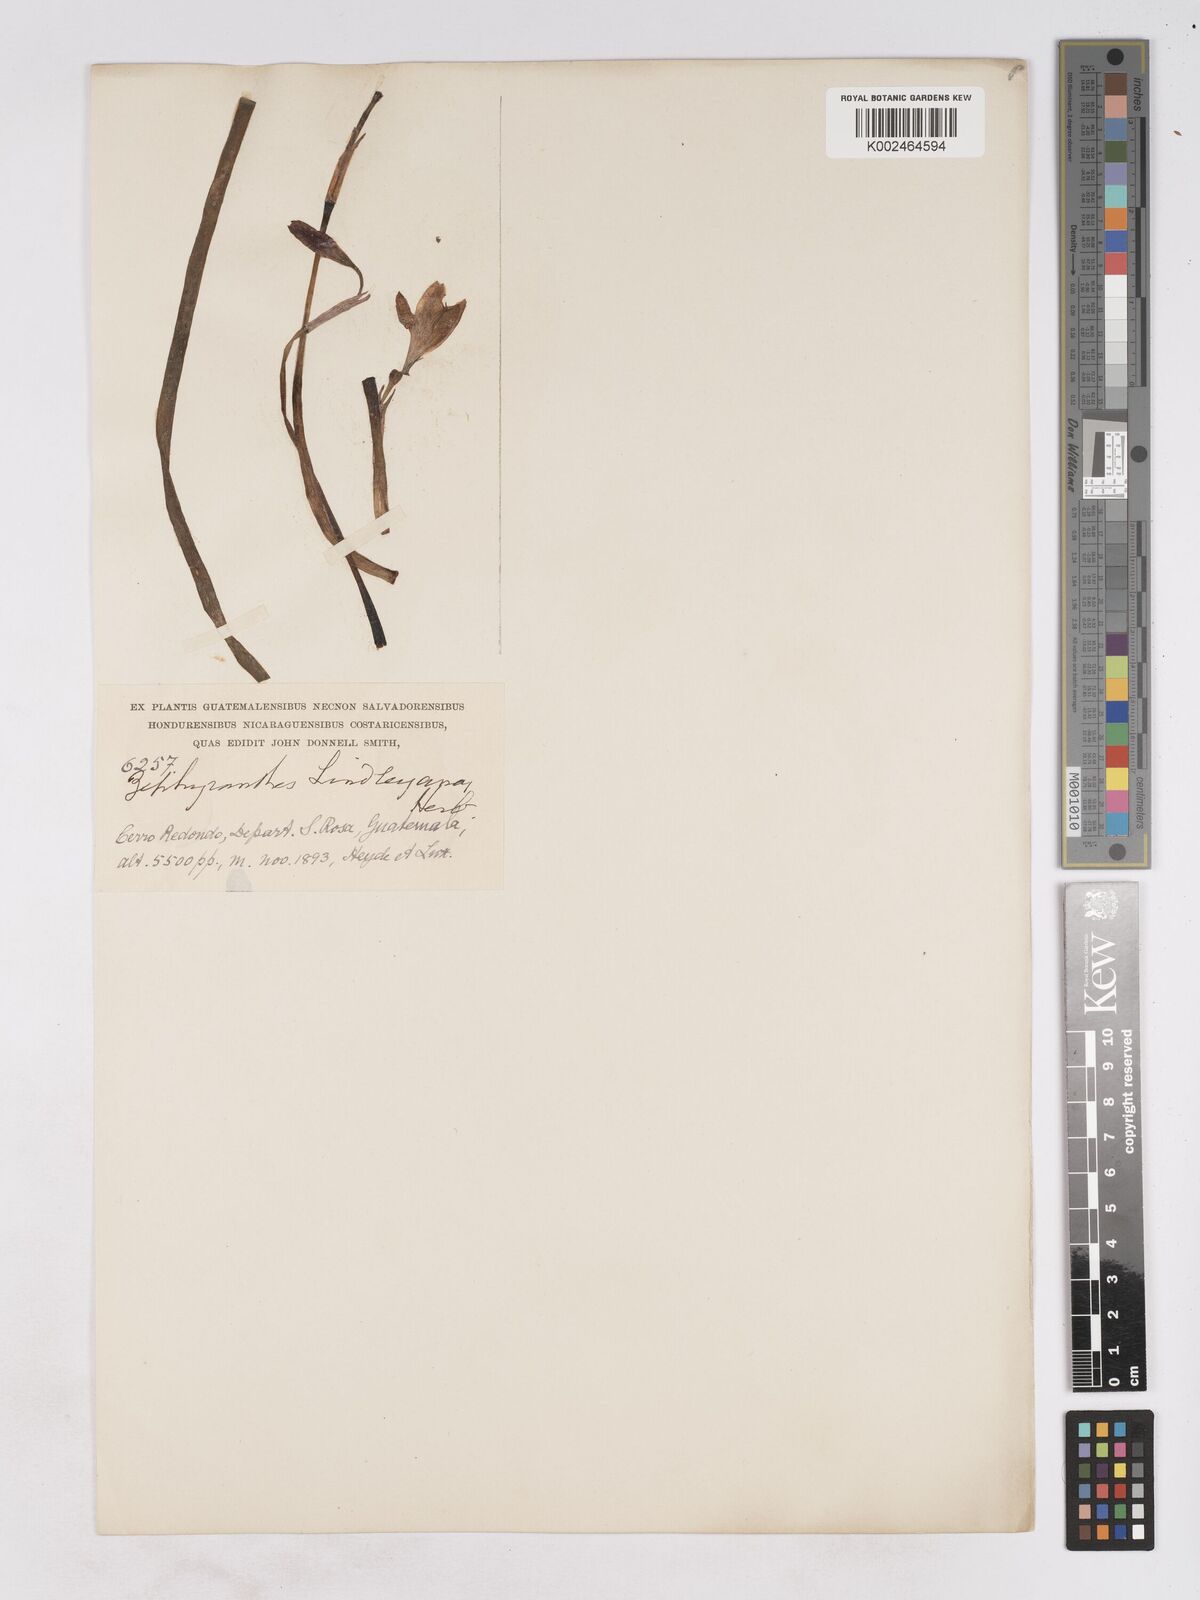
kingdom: Plantae
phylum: Tracheophyta
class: Liliopsida
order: Asparagales
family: Amaryllidaceae
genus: Zephyranthes
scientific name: Zephyranthes rosea
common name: Cuban zephyrlily
